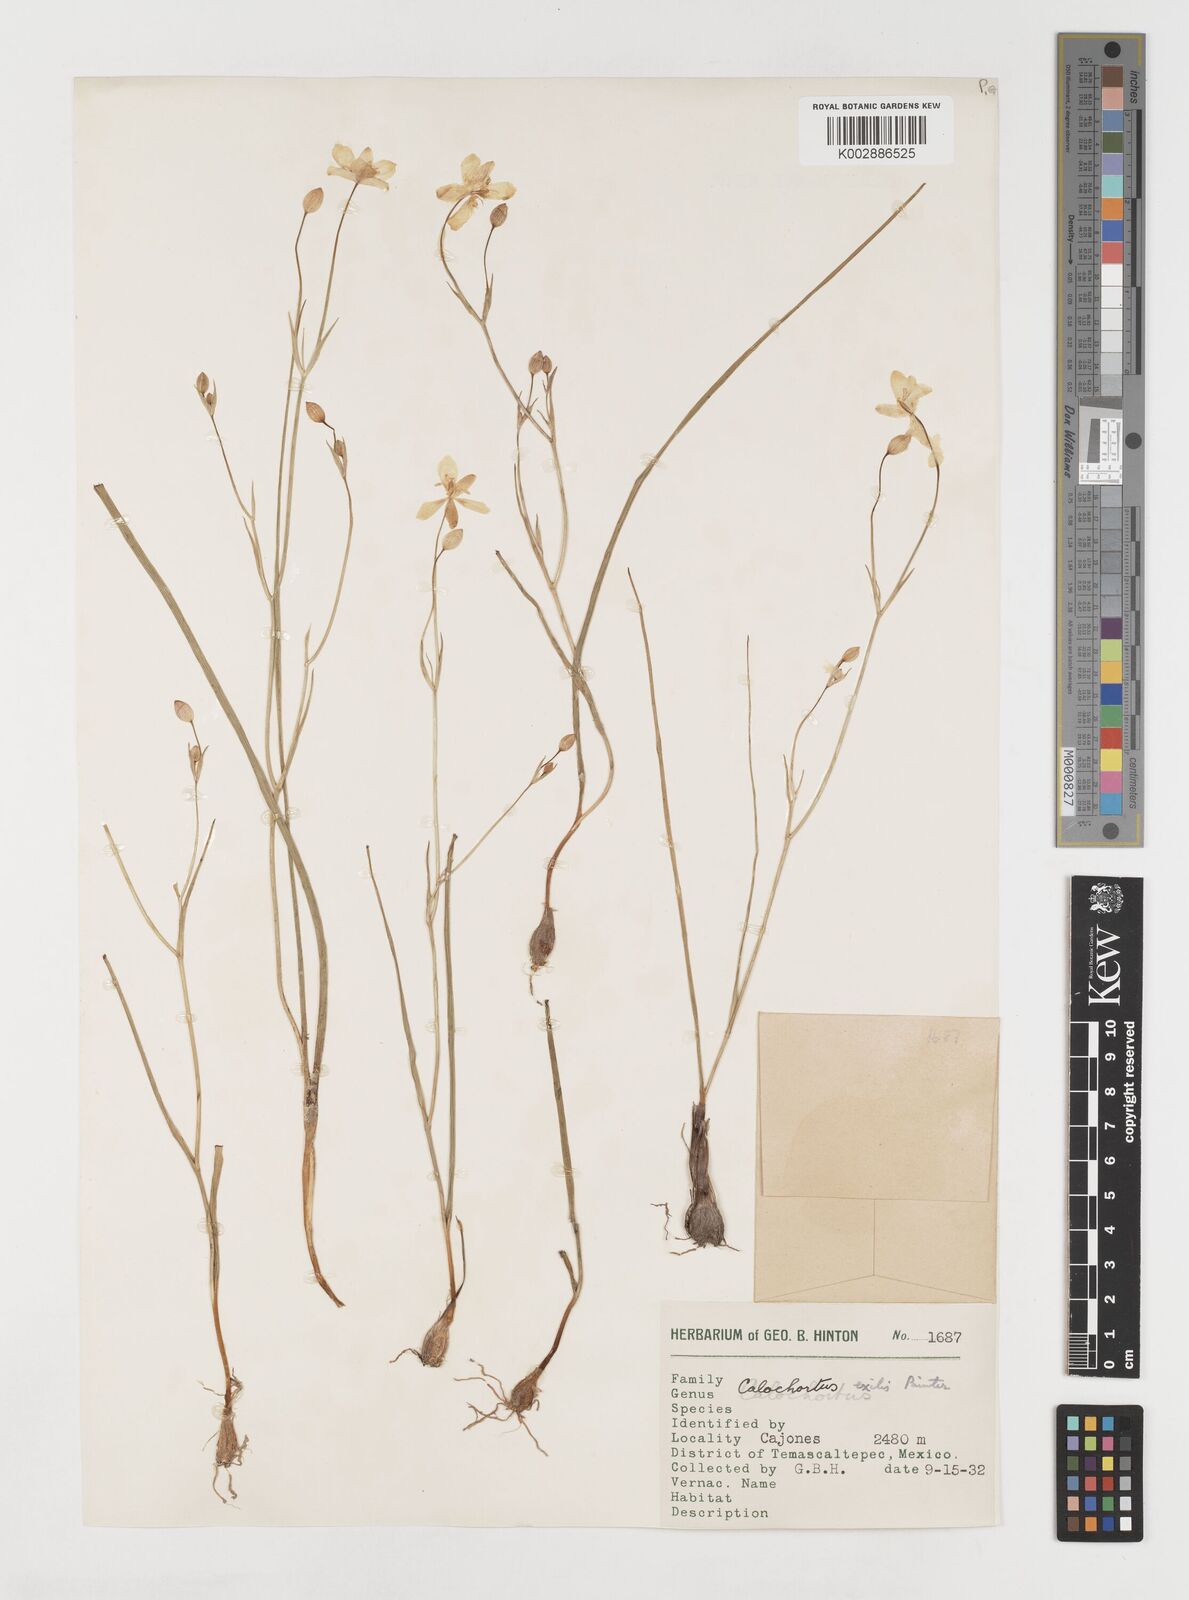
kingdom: Plantae
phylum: Tracheophyta
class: Liliopsida
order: Liliales
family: Liliaceae
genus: Calochortus
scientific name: Calochortus exilis
